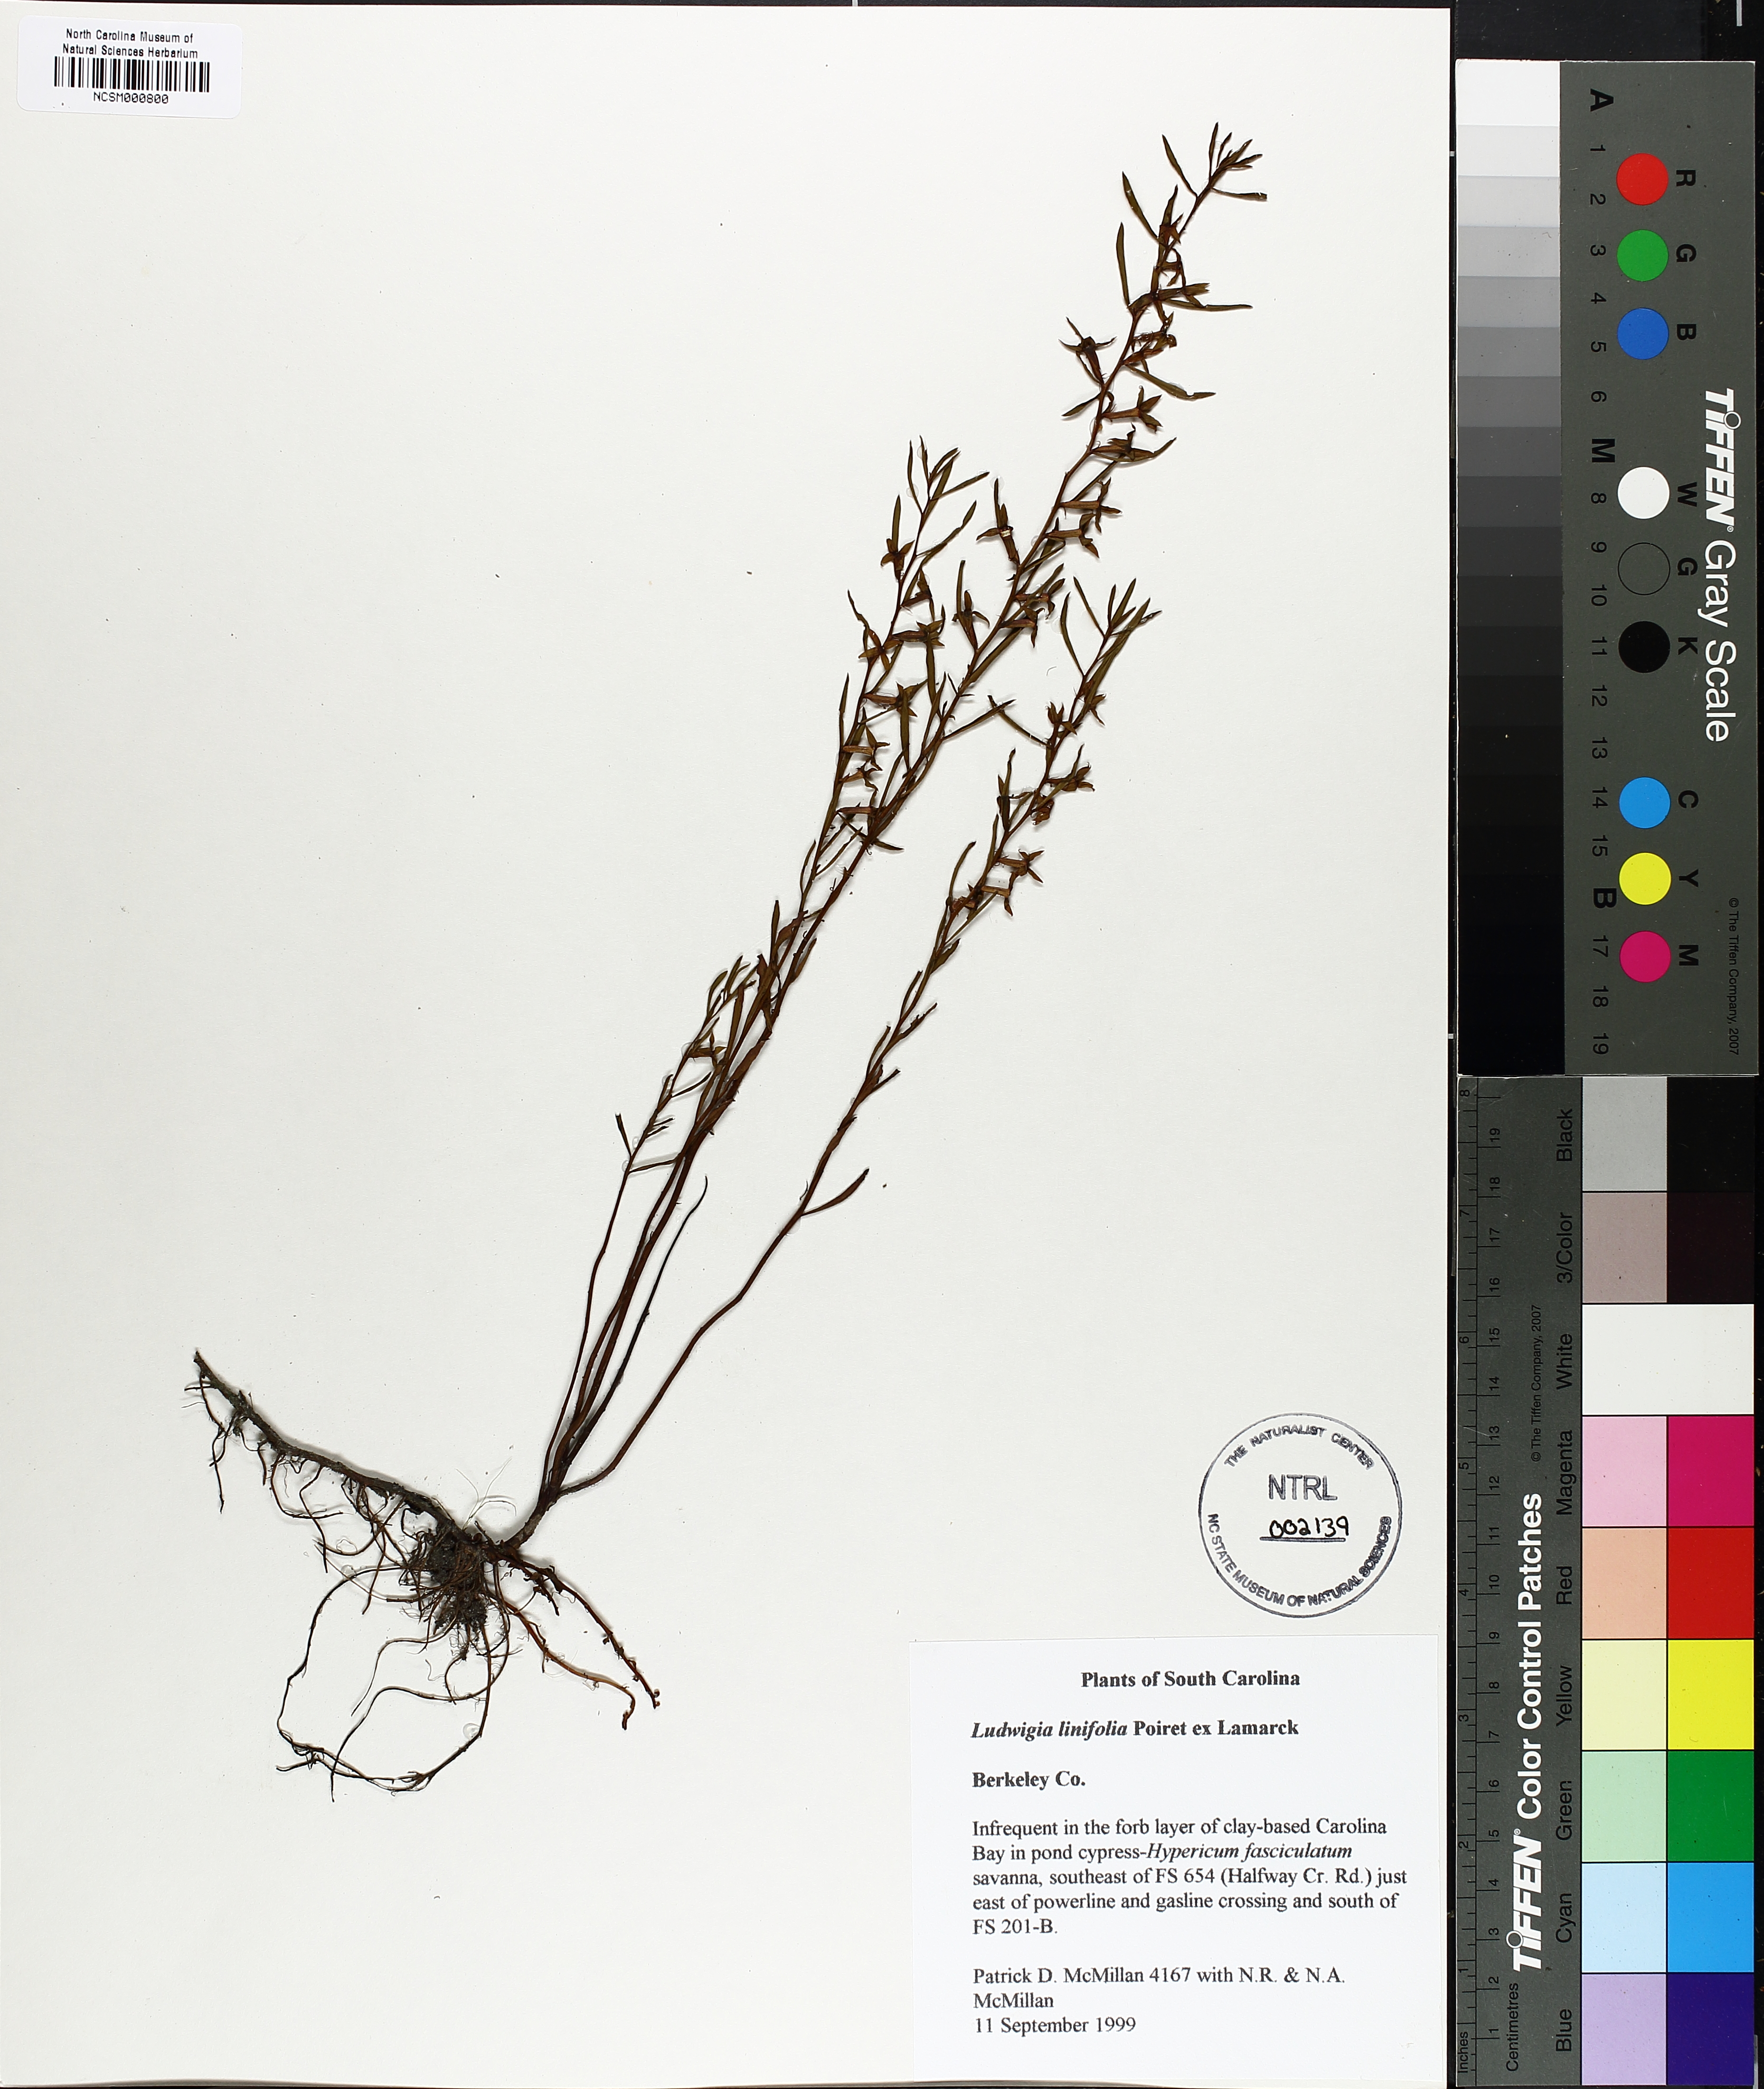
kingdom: Plantae
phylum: Tracheophyta
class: Magnoliopsida
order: Myrtales
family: Onagraceae
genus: Ludwigia
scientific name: Ludwigia linifolia
